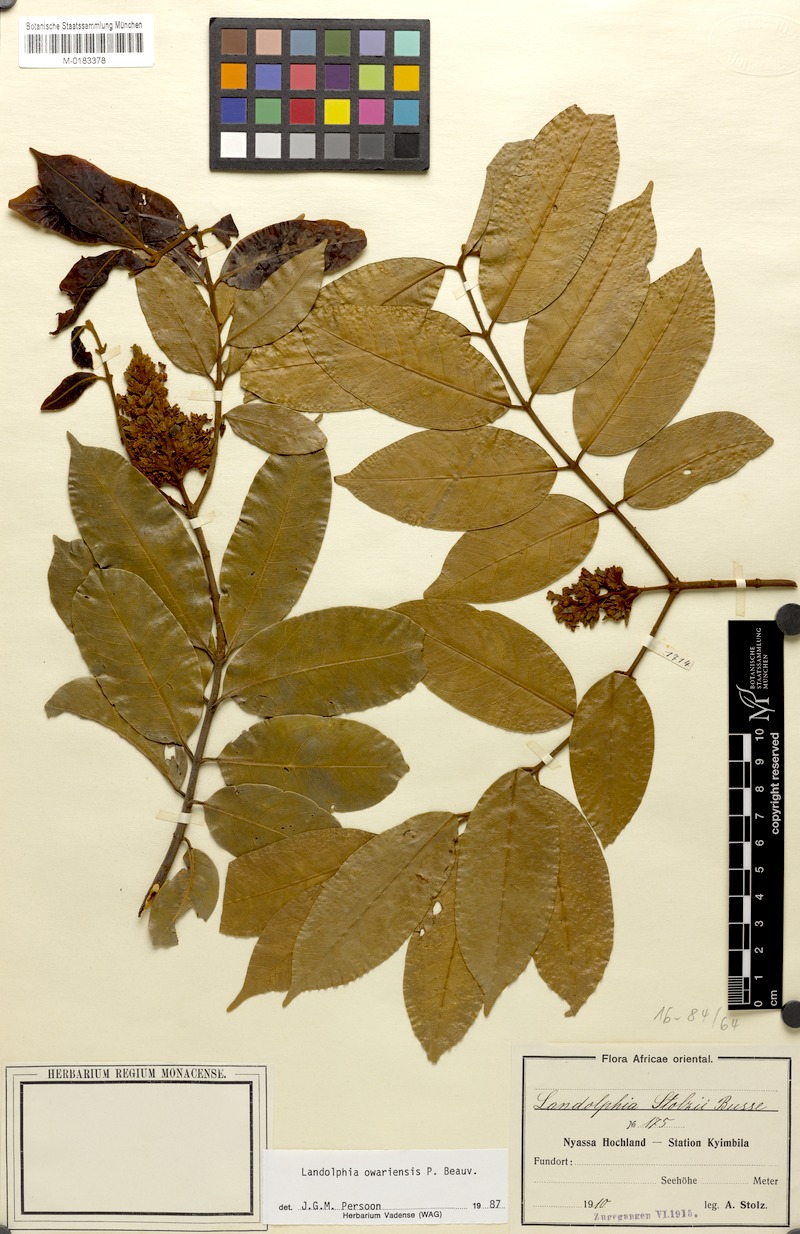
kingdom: Plantae
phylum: Tracheophyta
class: Magnoliopsida
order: Gentianales
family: Apocynaceae
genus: Landolphia
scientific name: Landolphia owariensis
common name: White-ball-rubber
